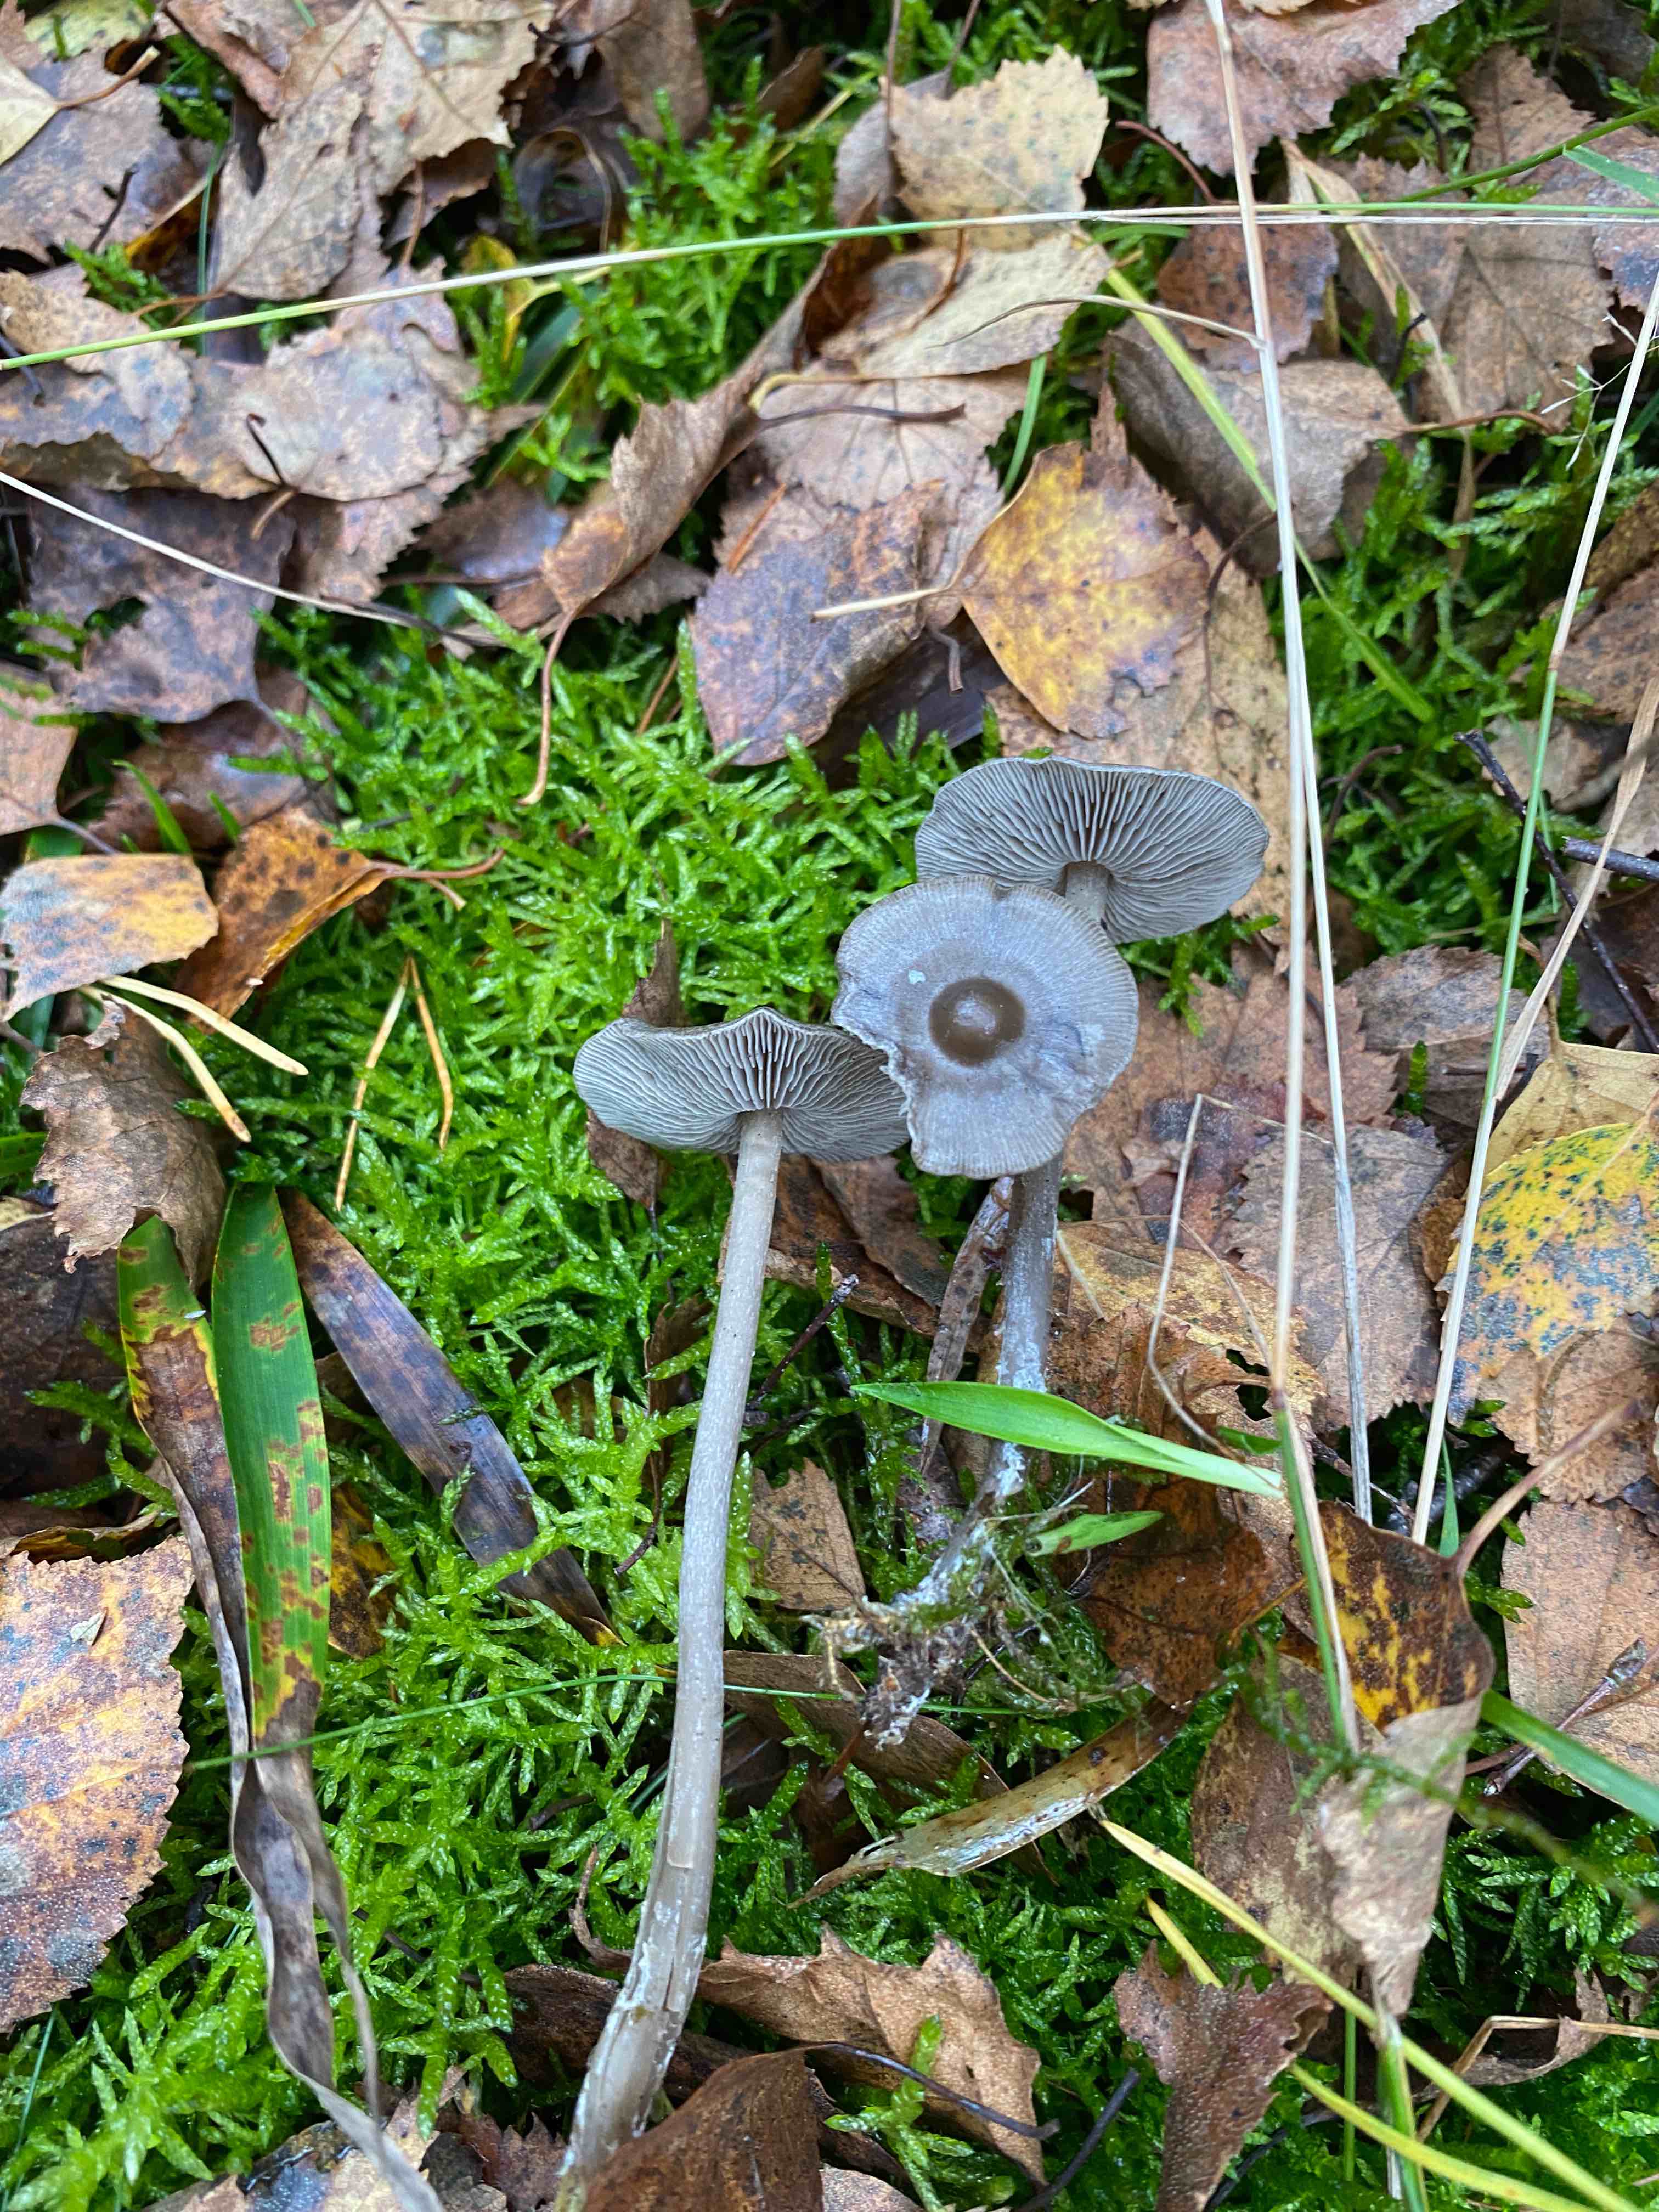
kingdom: Fungi
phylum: Basidiomycota
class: Agaricomycetes
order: Agaricales
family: Lyophyllaceae
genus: Tephrocybe
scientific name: Tephrocybe rancida
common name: mel-gråblad
